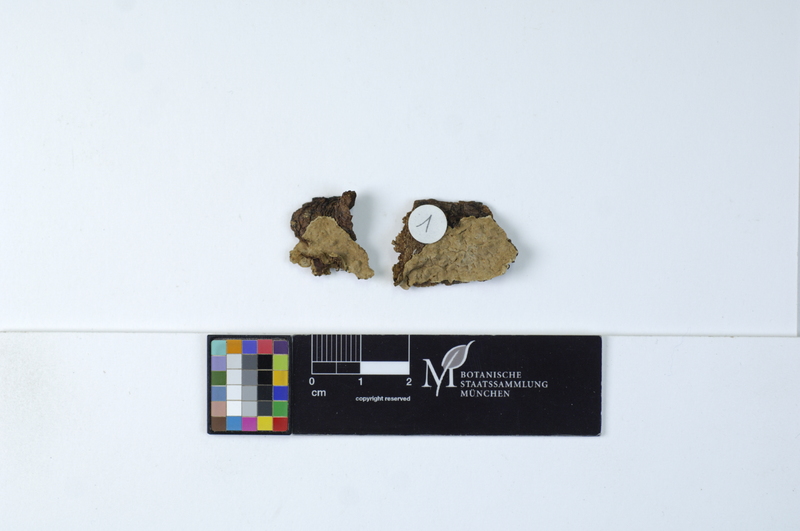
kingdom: Plantae
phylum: Tracheophyta
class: Pinopsida
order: Pinales
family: Pinaceae
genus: Abies
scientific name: Abies
